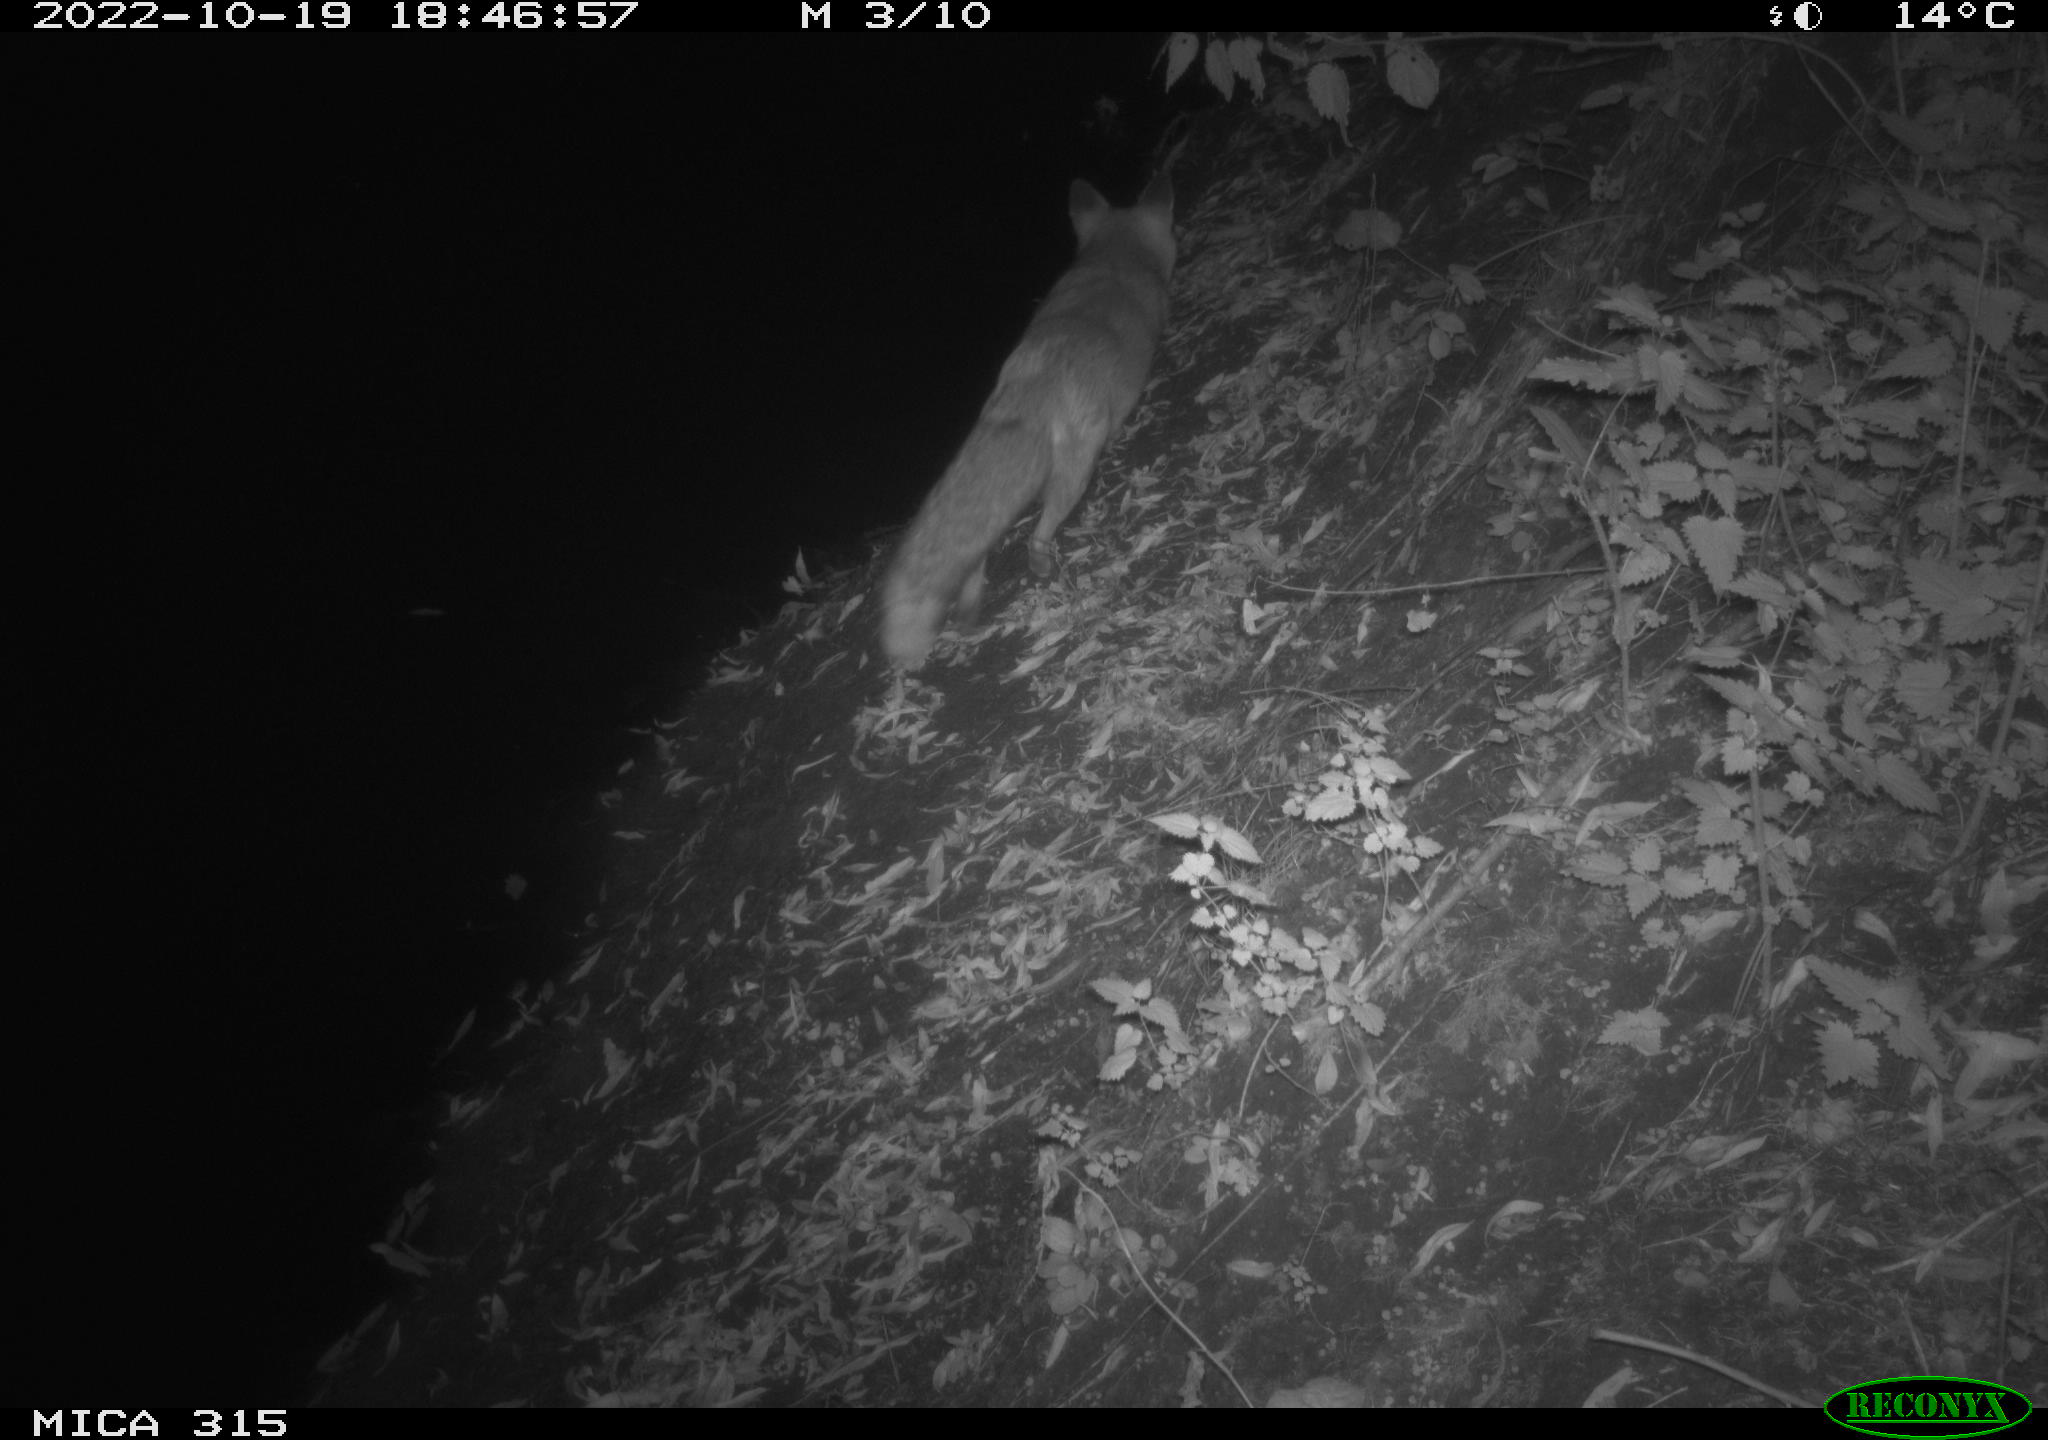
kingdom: Animalia
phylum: Chordata
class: Mammalia
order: Carnivora
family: Canidae
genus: Vulpes
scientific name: Vulpes vulpes
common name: Red fox
